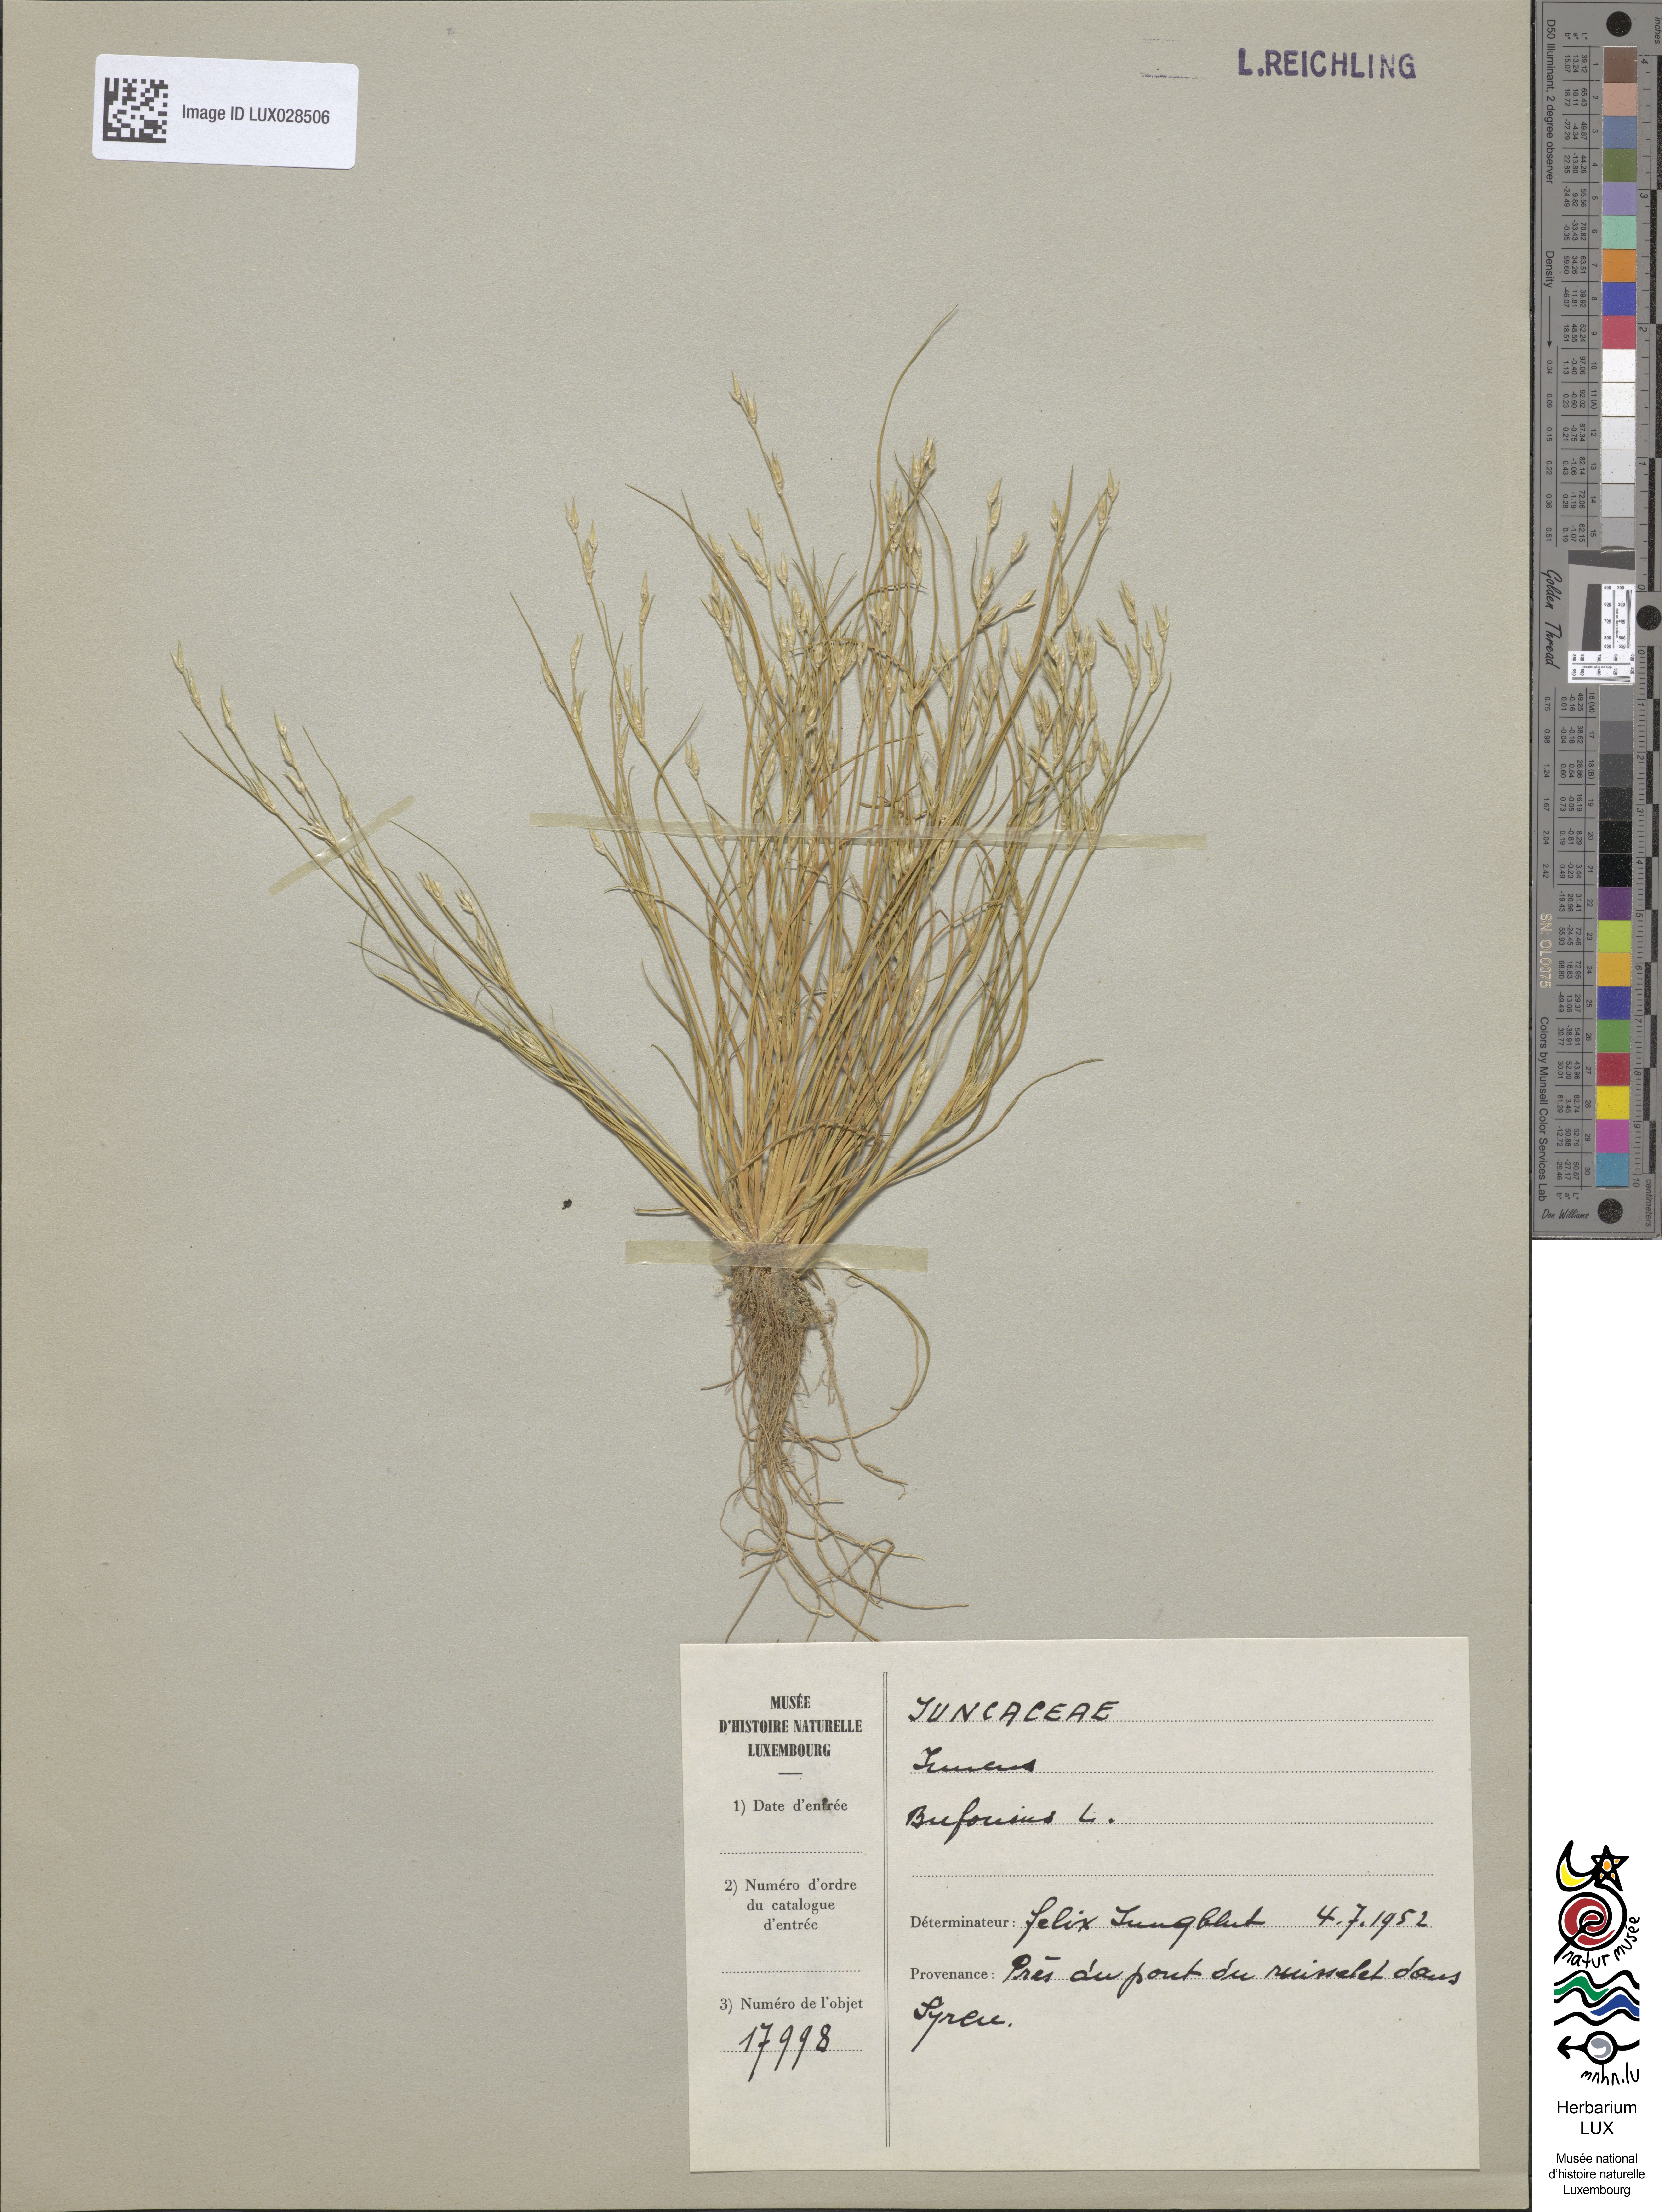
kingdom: Plantae
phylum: Tracheophyta
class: Liliopsida
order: Poales
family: Juncaceae
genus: Juncus
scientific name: Juncus bufonius
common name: Toad rush
